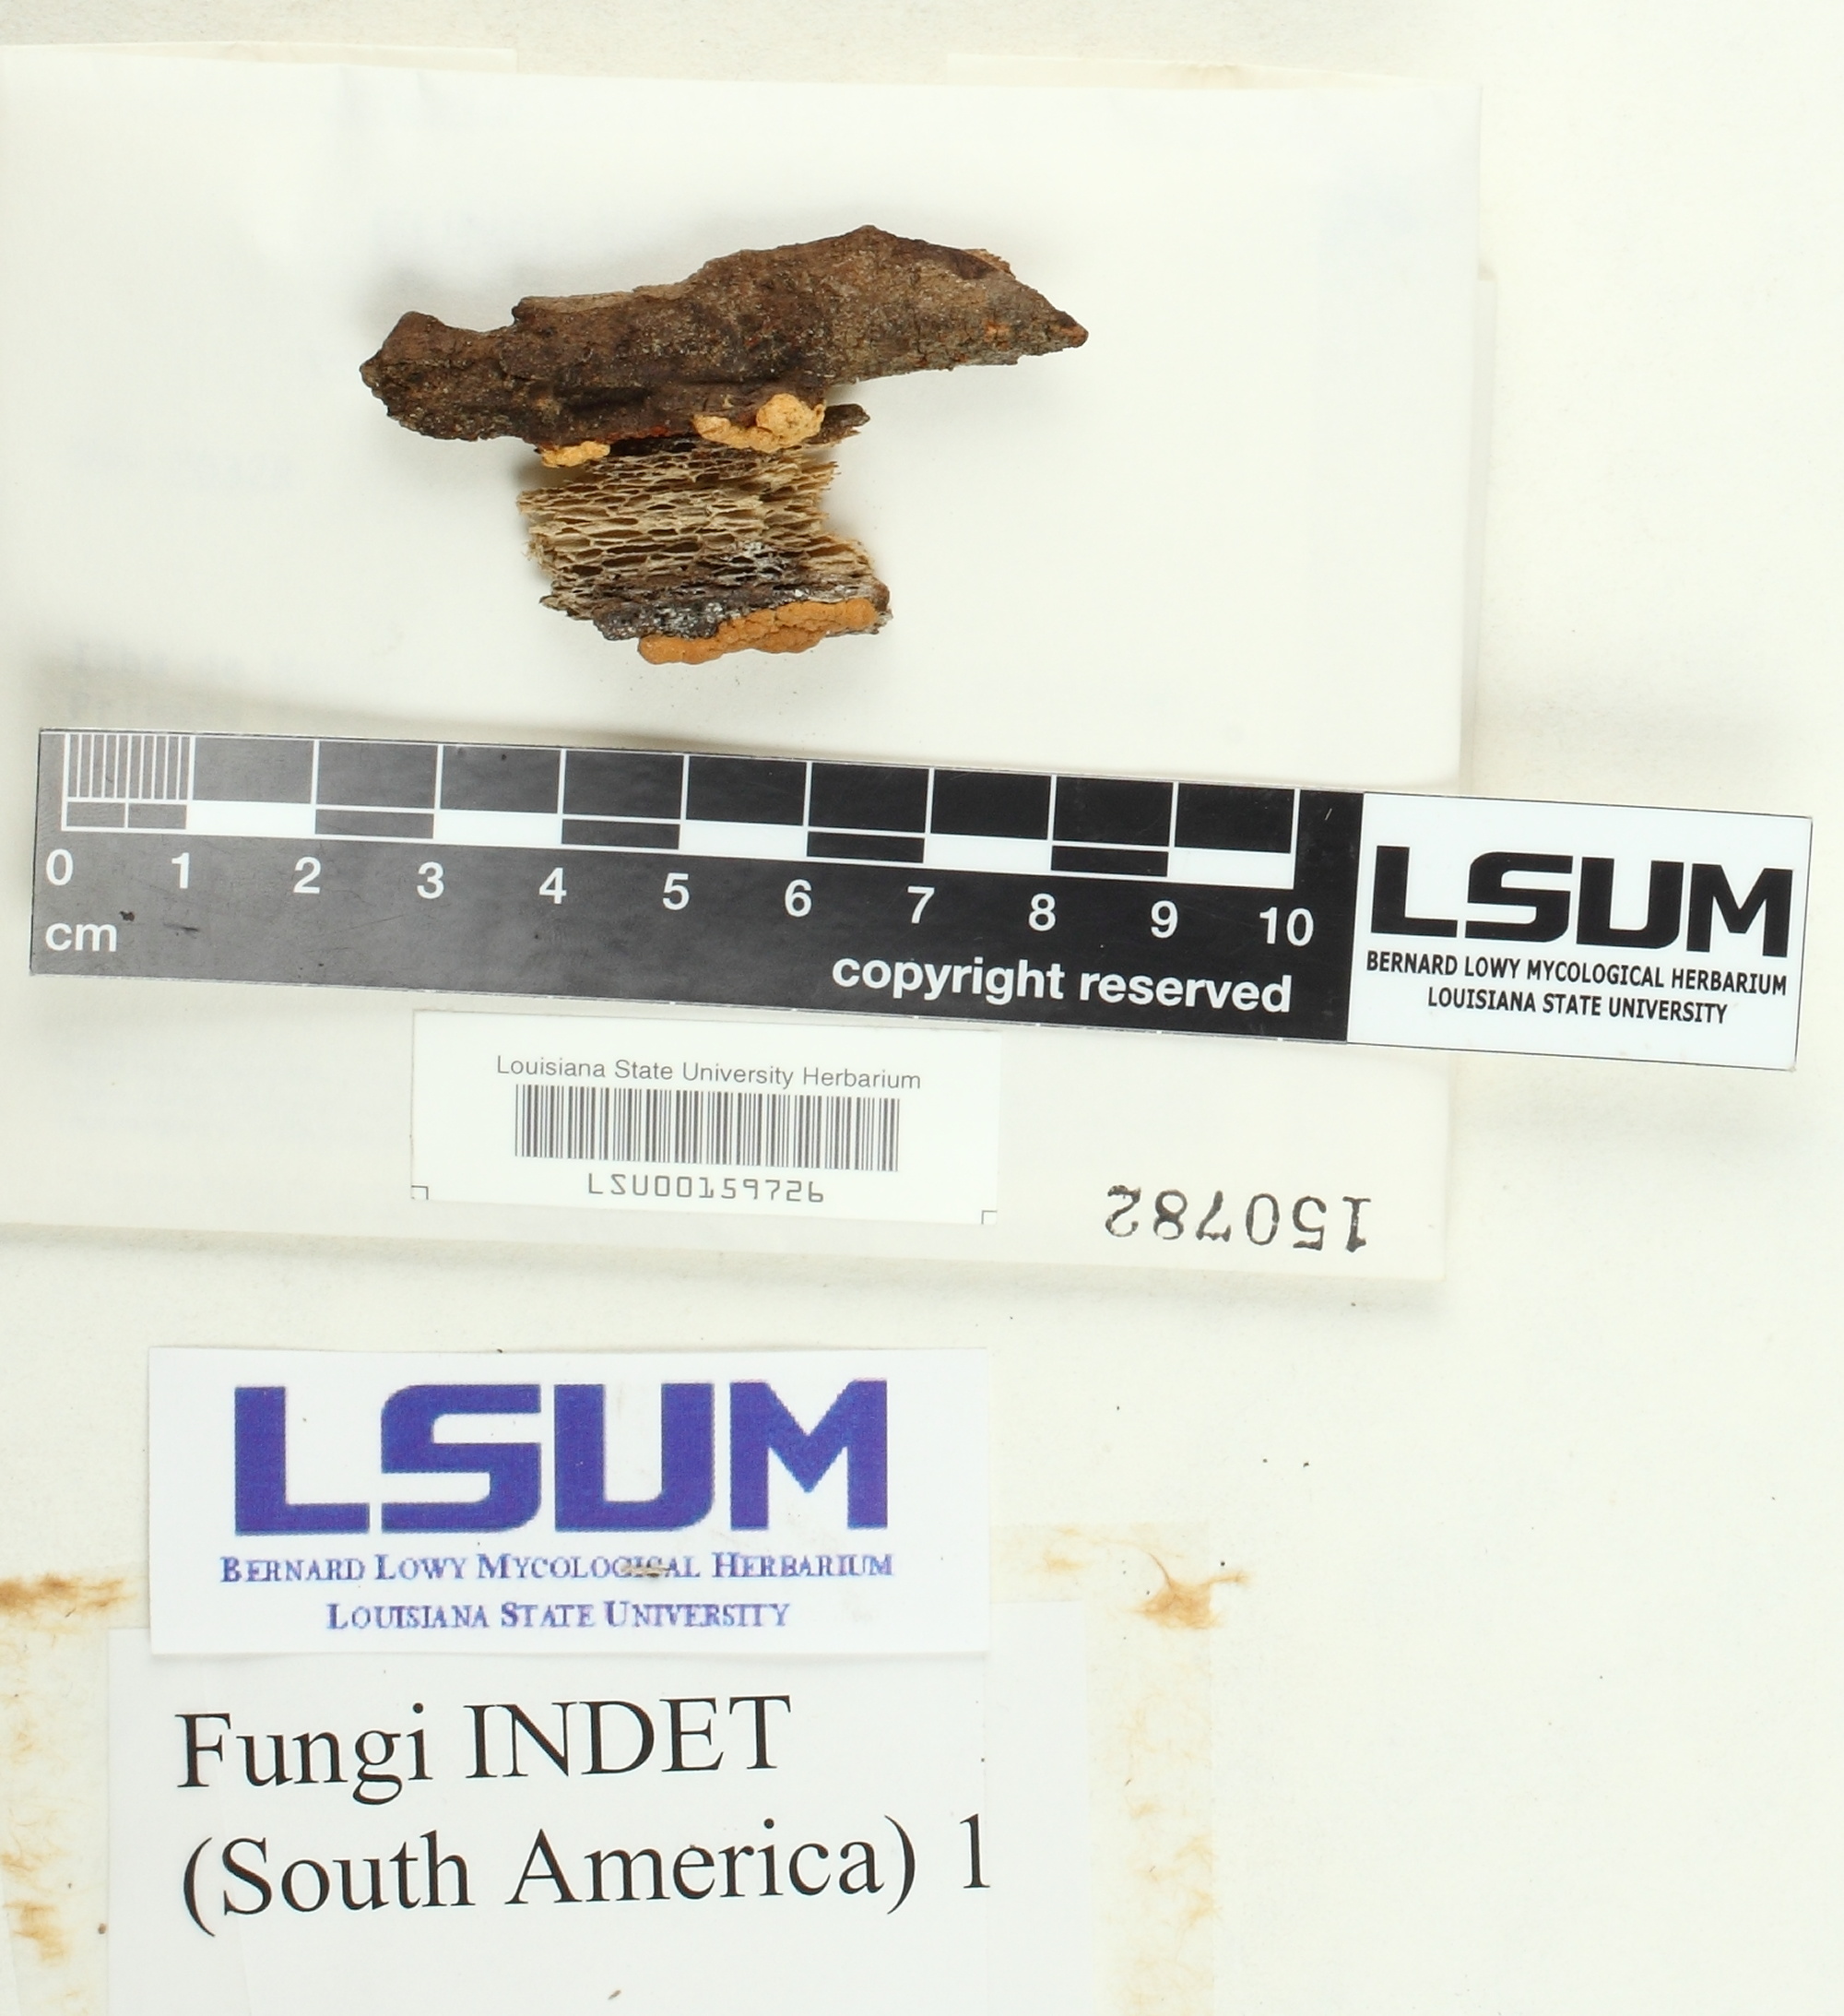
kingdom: Fungi
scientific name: Fungi
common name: Fungi
